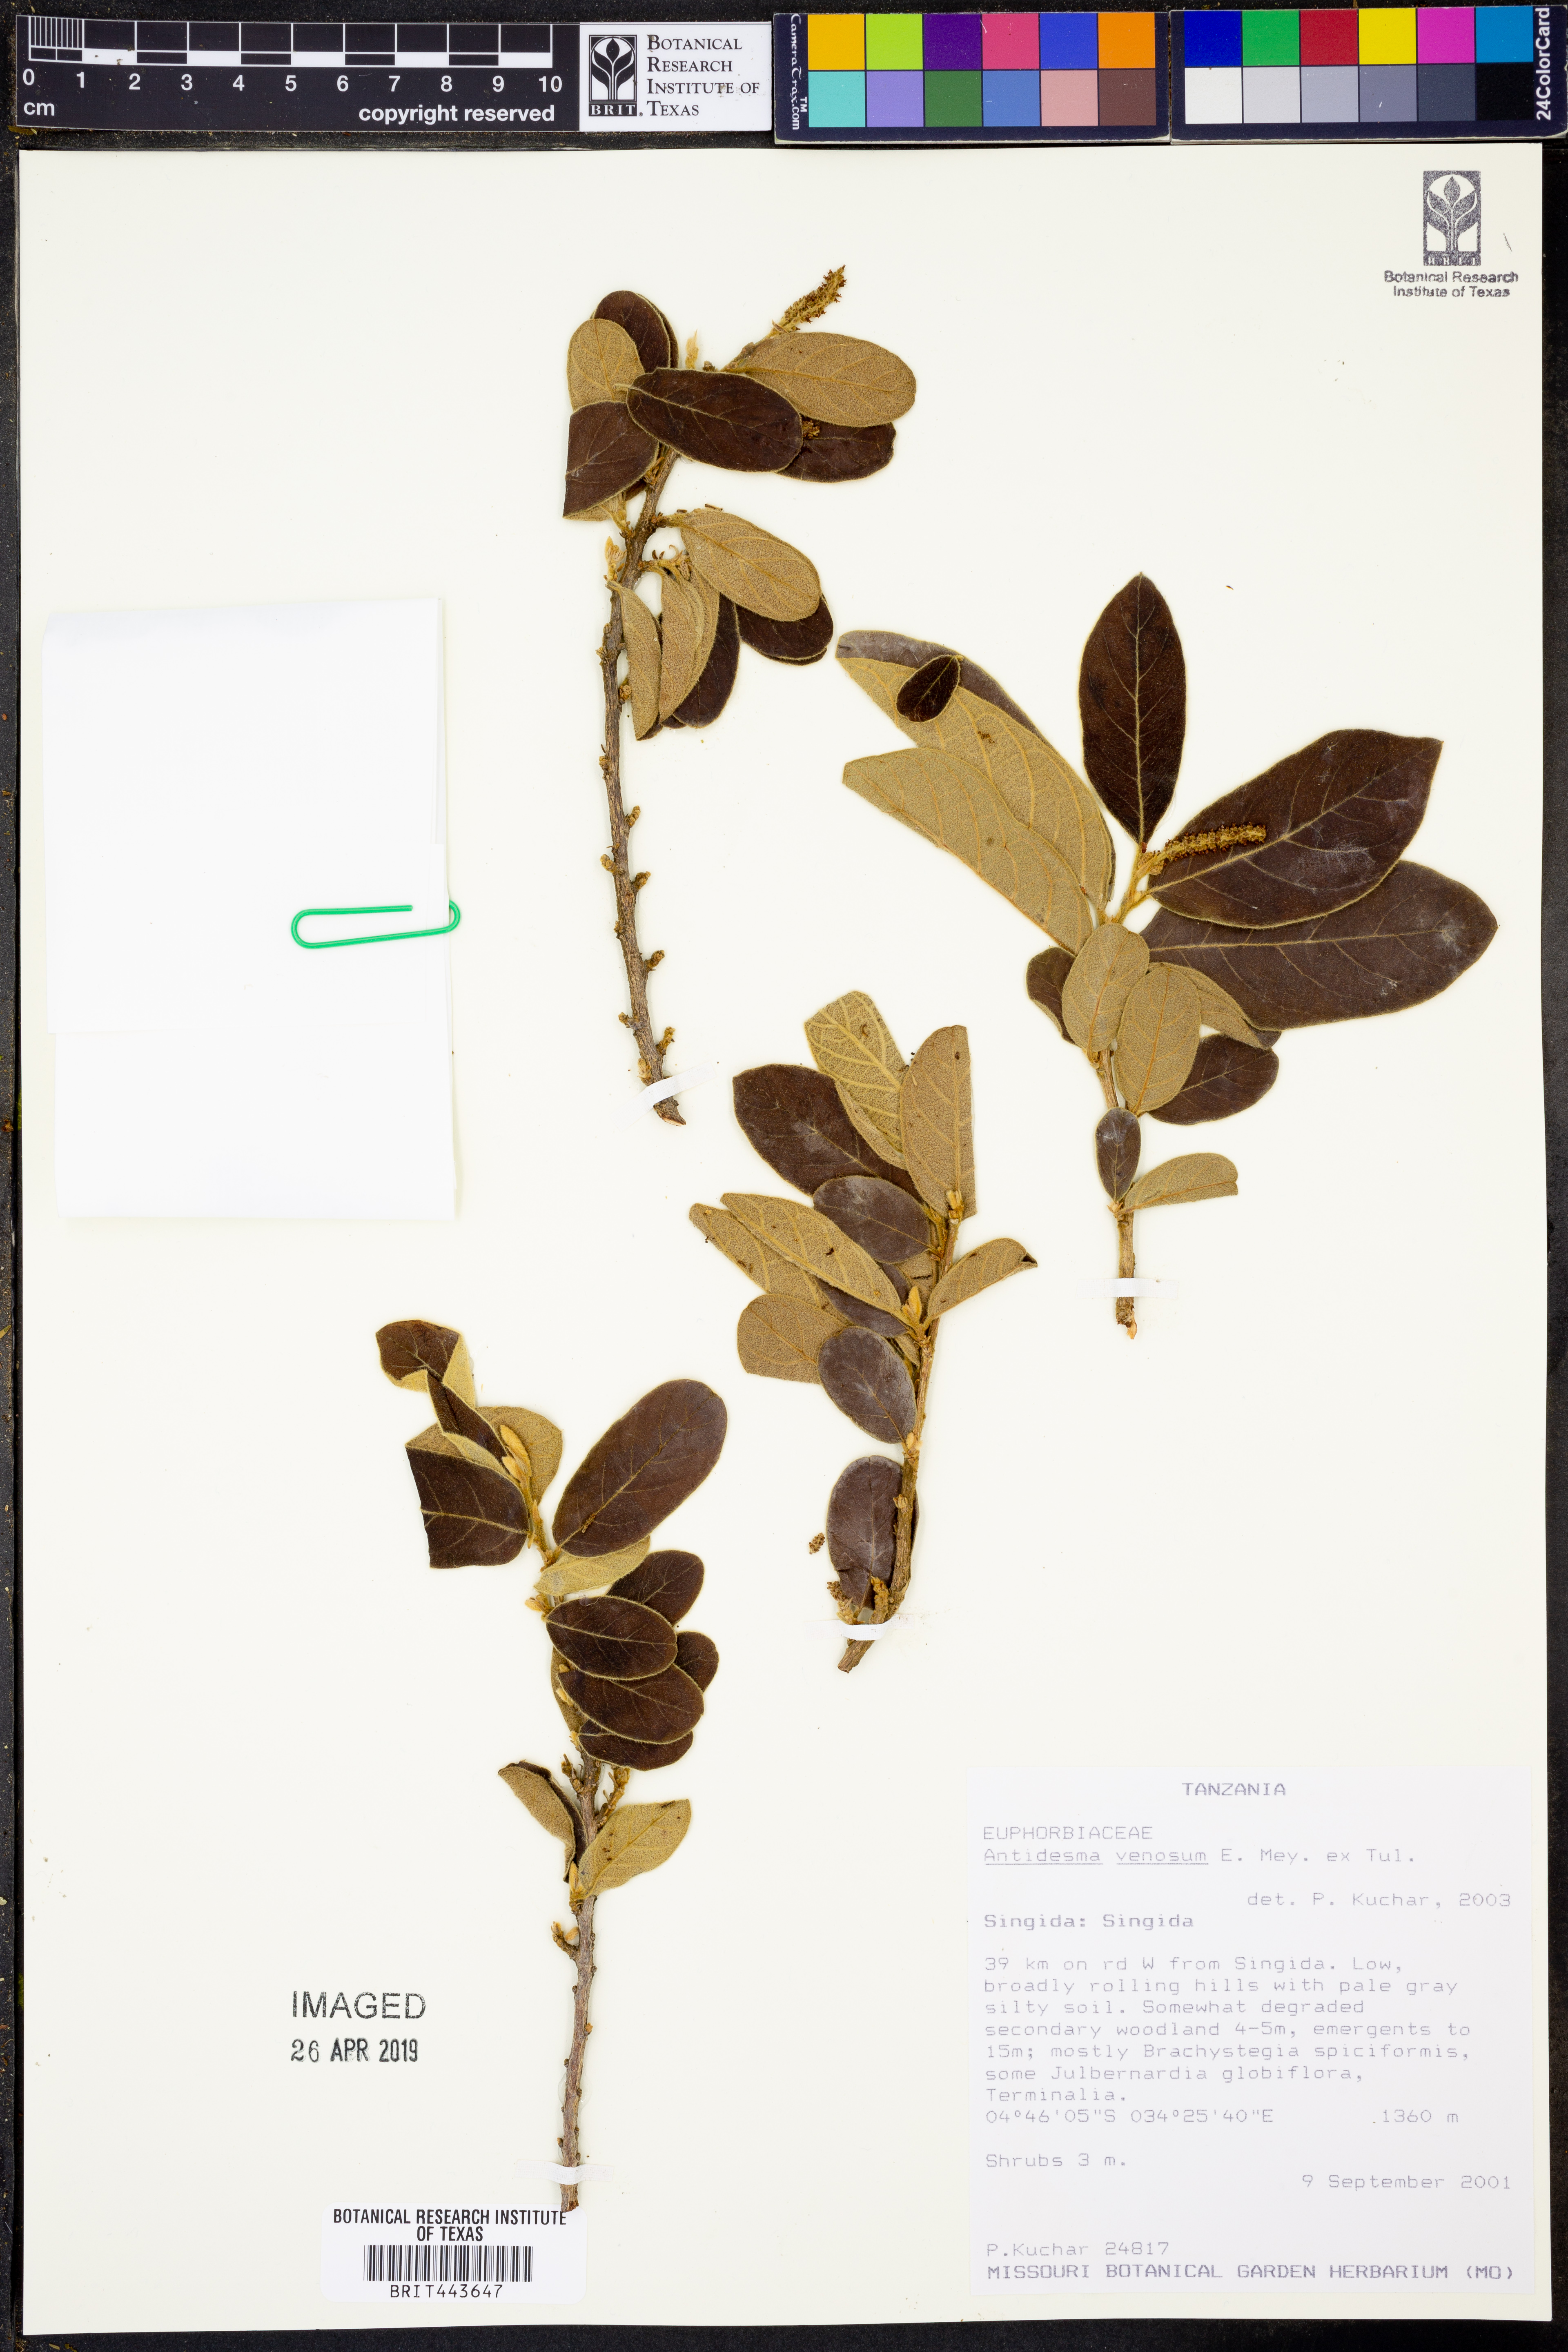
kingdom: Plantae
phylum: Tracheophyta
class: Magnoliopsida
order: Malpighiales
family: Phyllanthaceae
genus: Antidesma
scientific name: Antidesma venosum
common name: Tassel-berry
